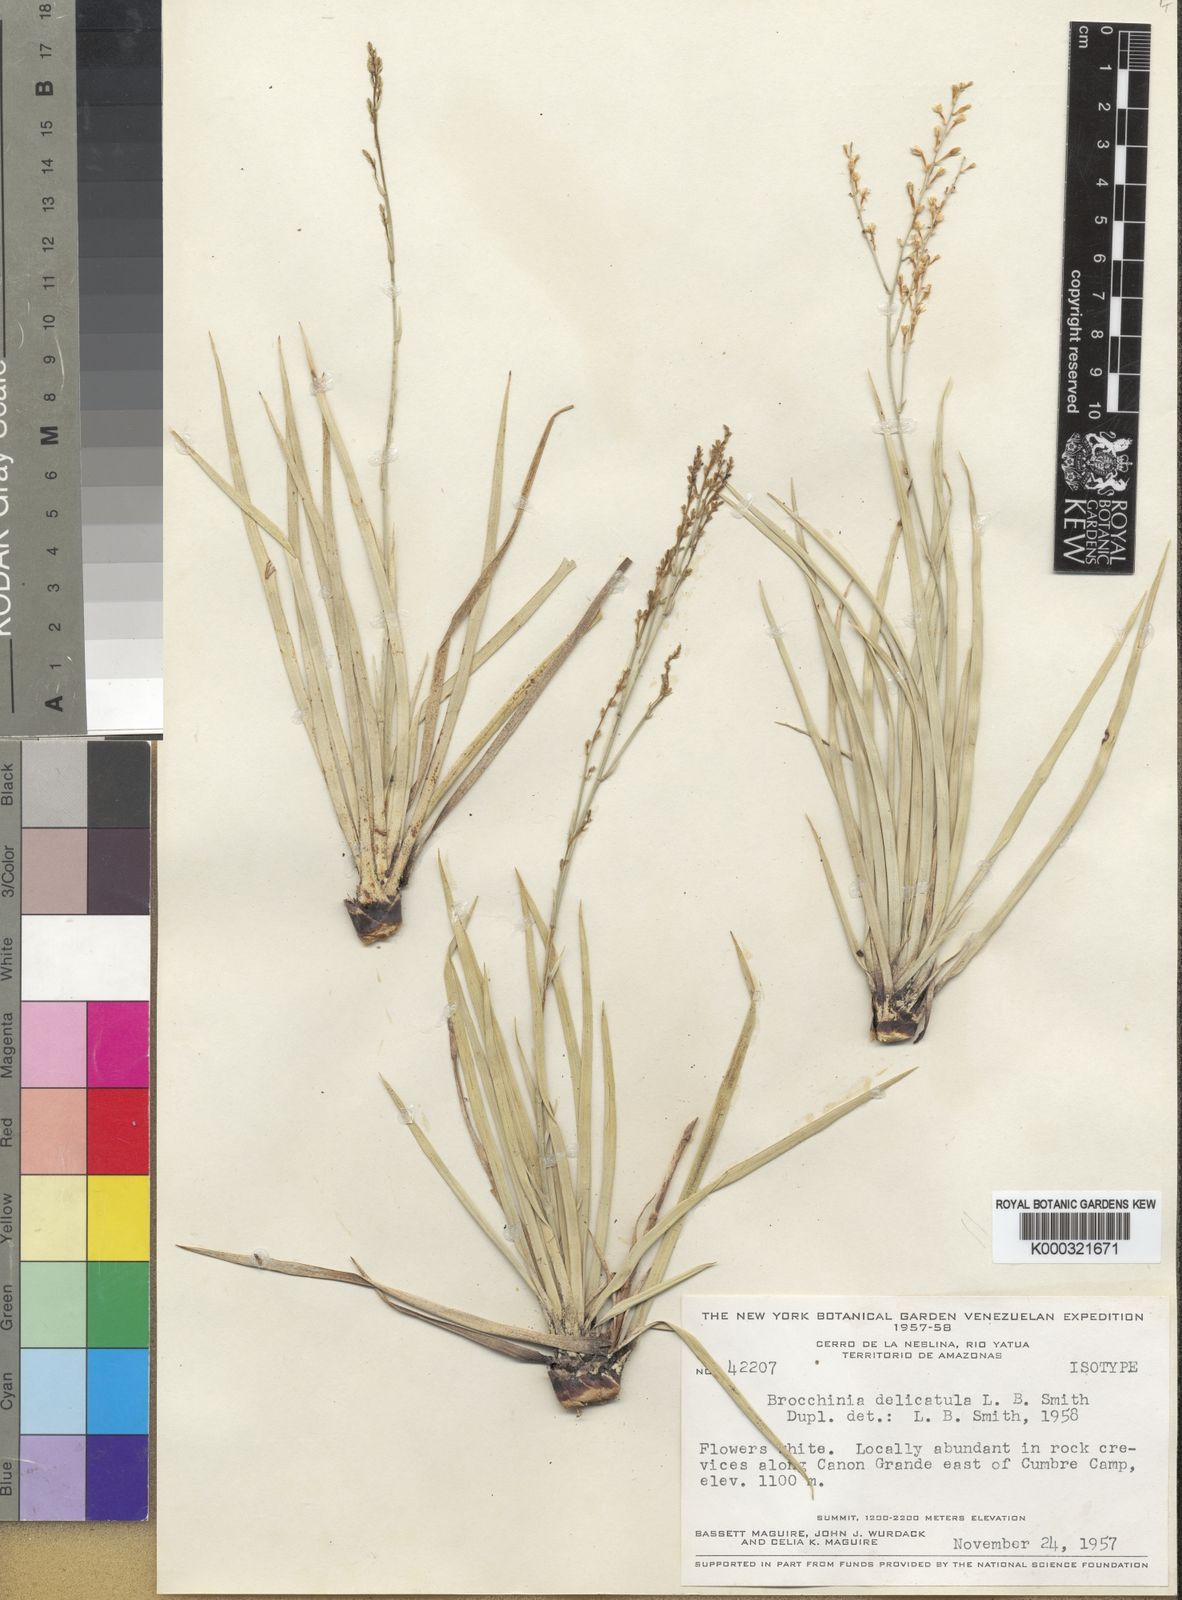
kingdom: Plantae
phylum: Tracheophyta
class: Liliopsida
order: Poales
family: Bromeliaceae
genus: Brocchinia
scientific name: Brocchinia delicatula
